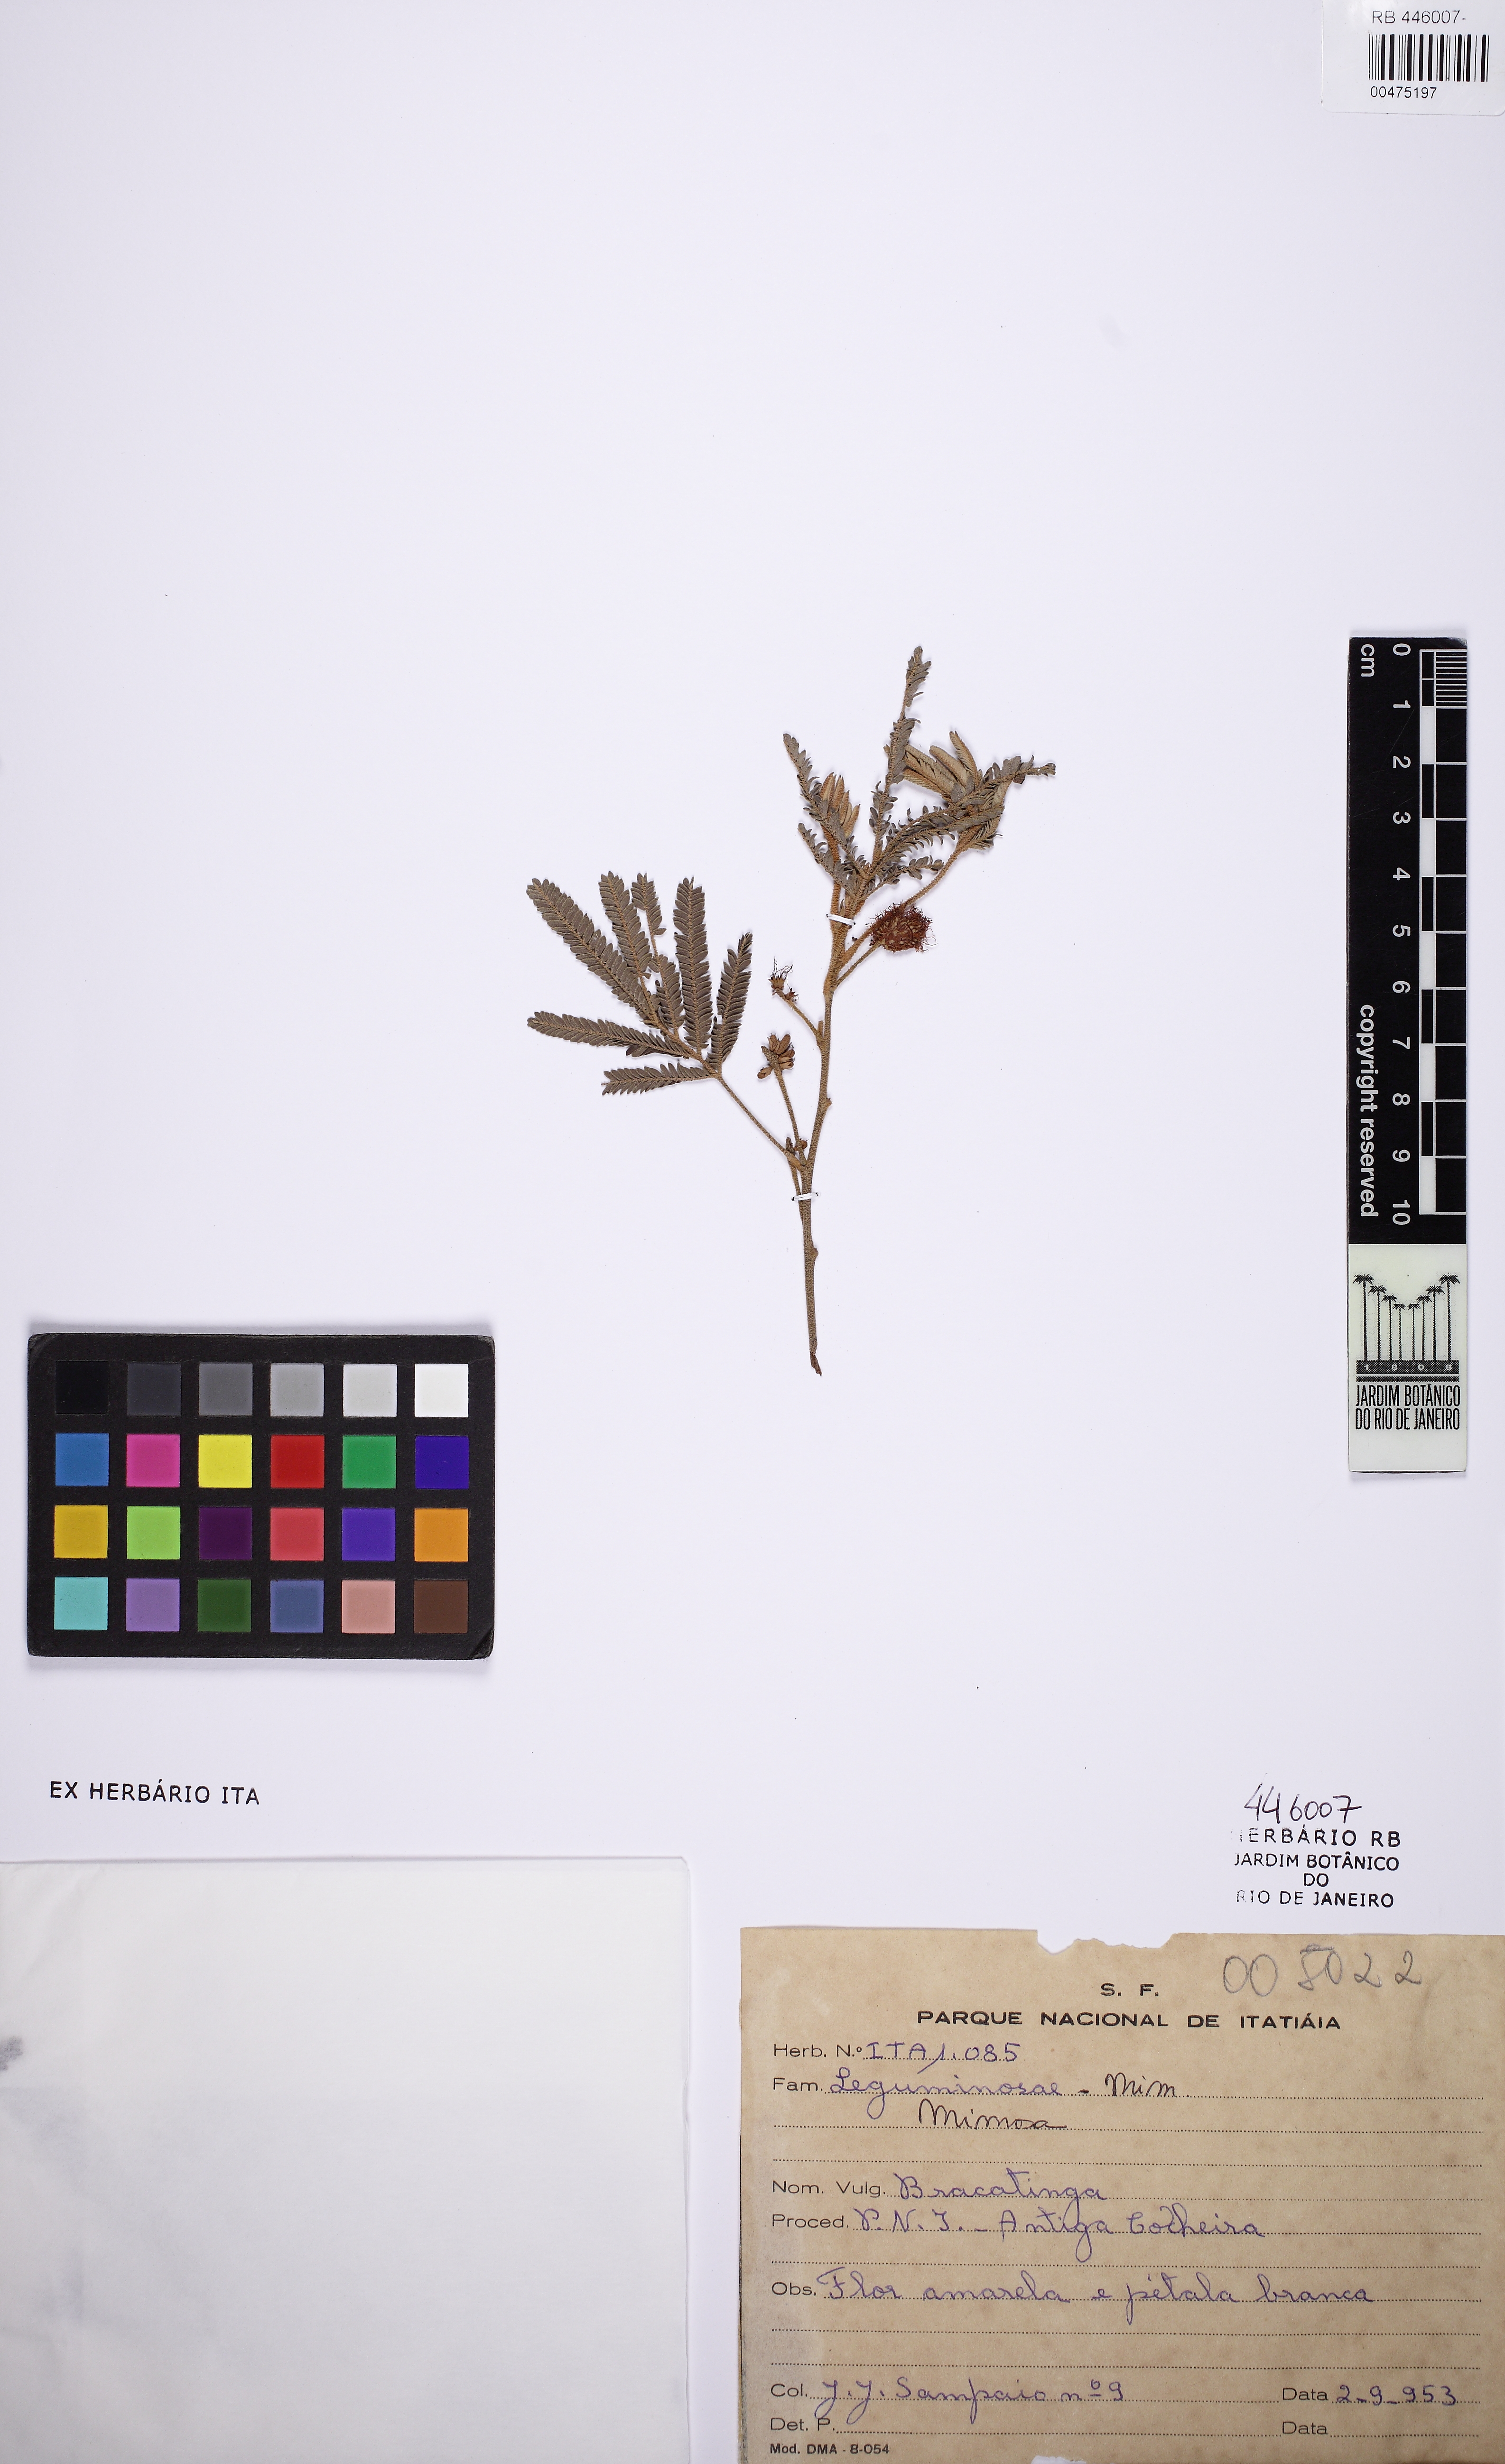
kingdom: Plantae
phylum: Tracheophyta
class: Magnoliopsida
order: Fabales
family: Fabaceae
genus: Mimosa
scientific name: Mimosa
